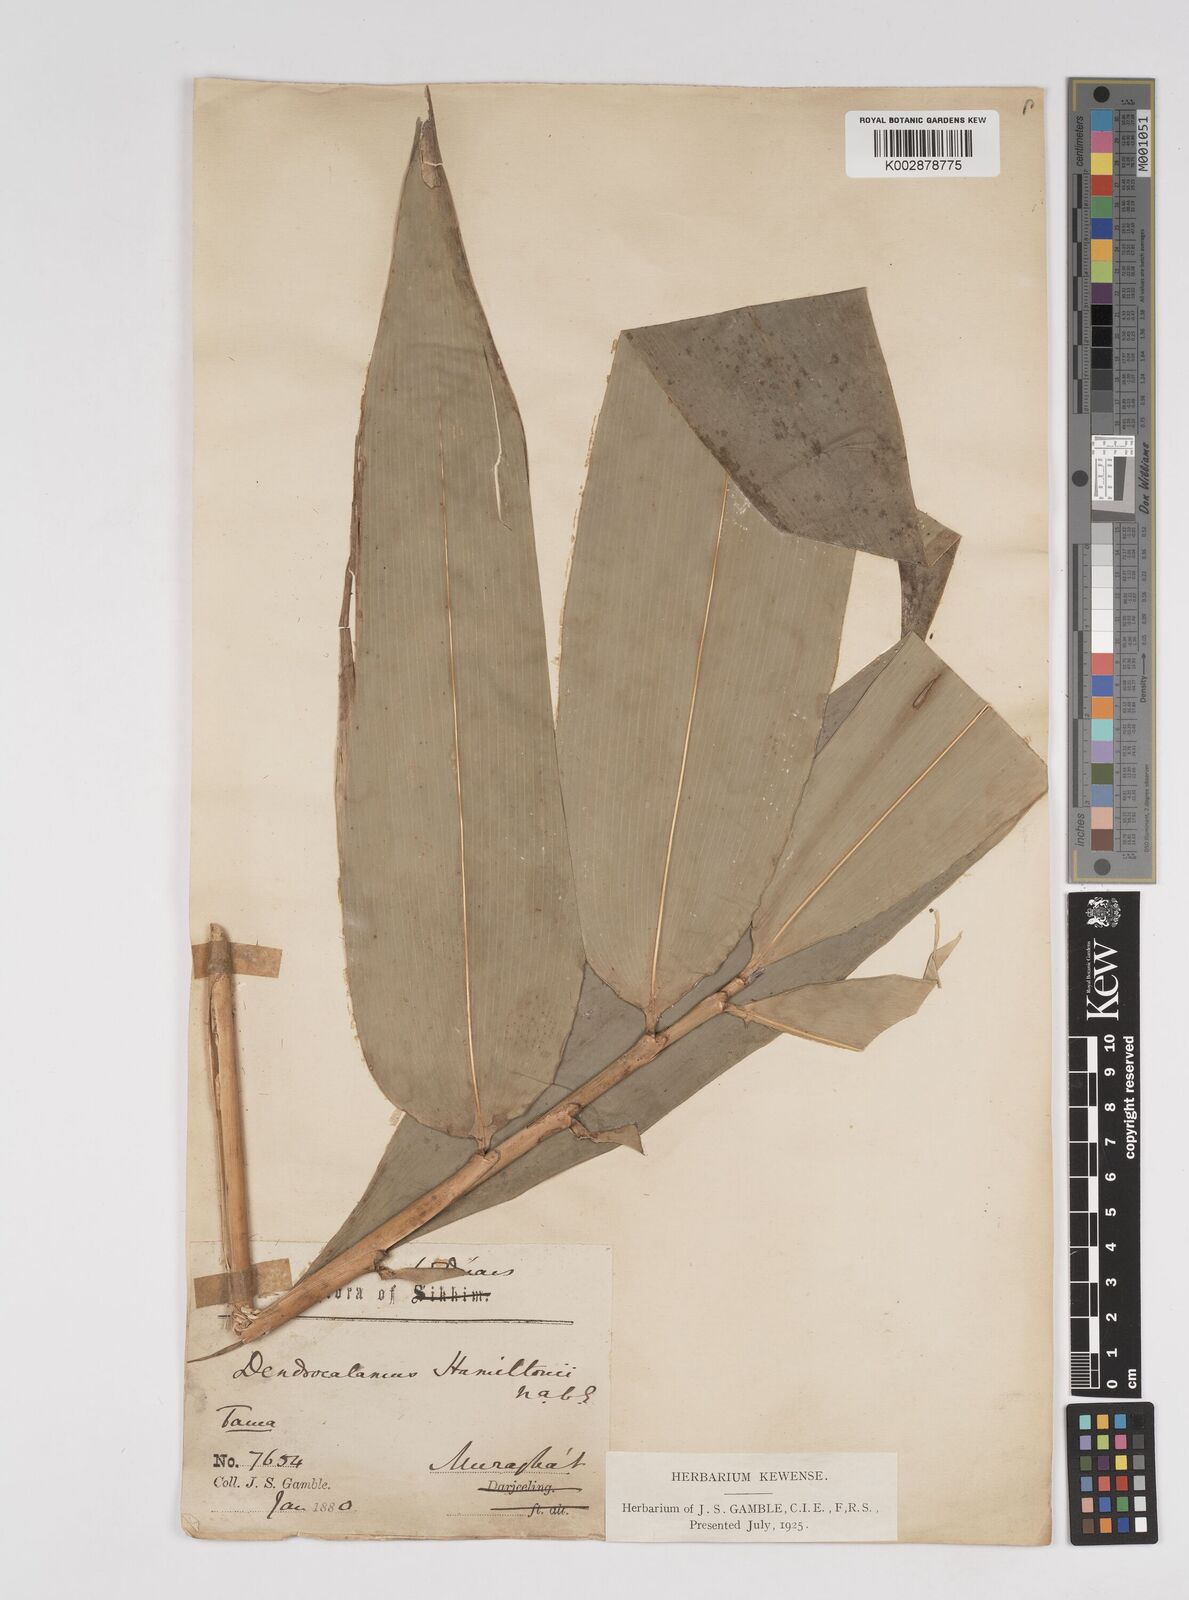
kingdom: Plantae
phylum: Tracheophyta
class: Liliopsida
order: Poales
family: Poaceae
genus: Dendrocalamus
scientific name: Dendrocalamus hamiltonii
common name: Tama bamboo
